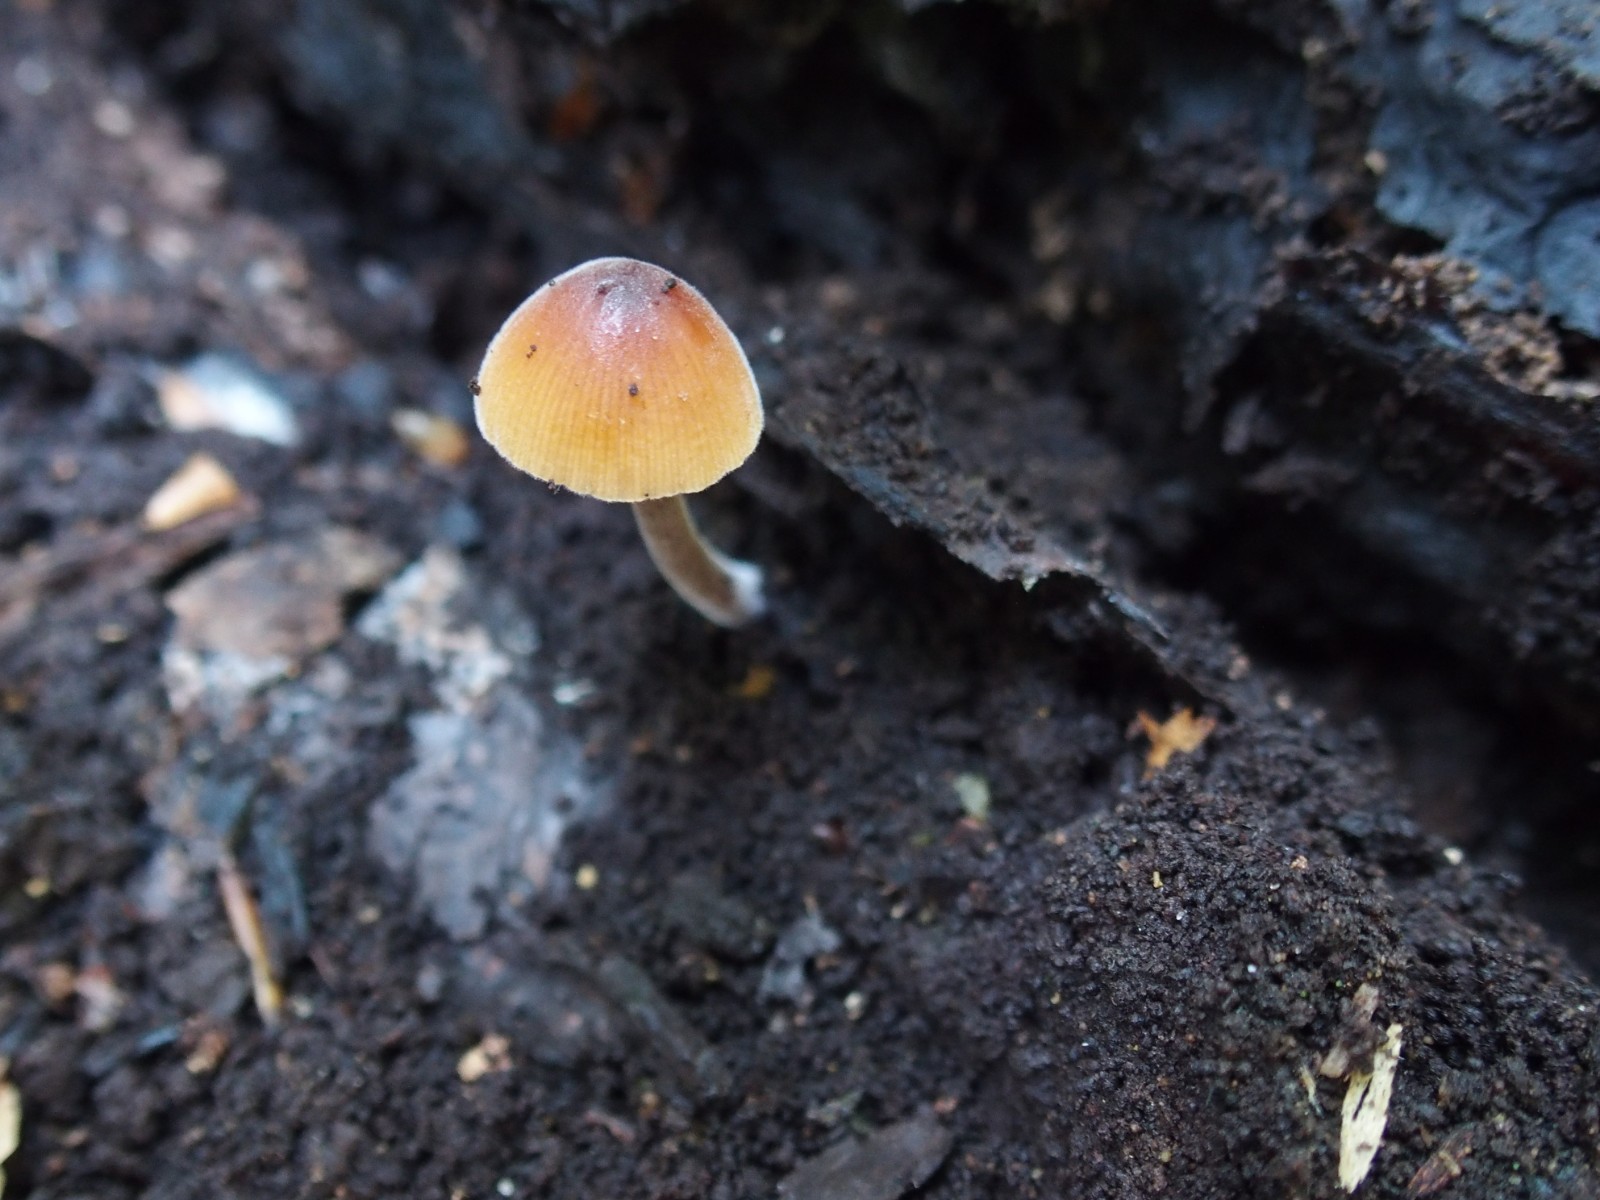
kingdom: Fungi
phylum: Basidiomycota
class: Agaricomycetes
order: Agaricales
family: Bolbitiaceae
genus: Conocybe
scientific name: Conocybe subpubescens
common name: krat-keglehat
